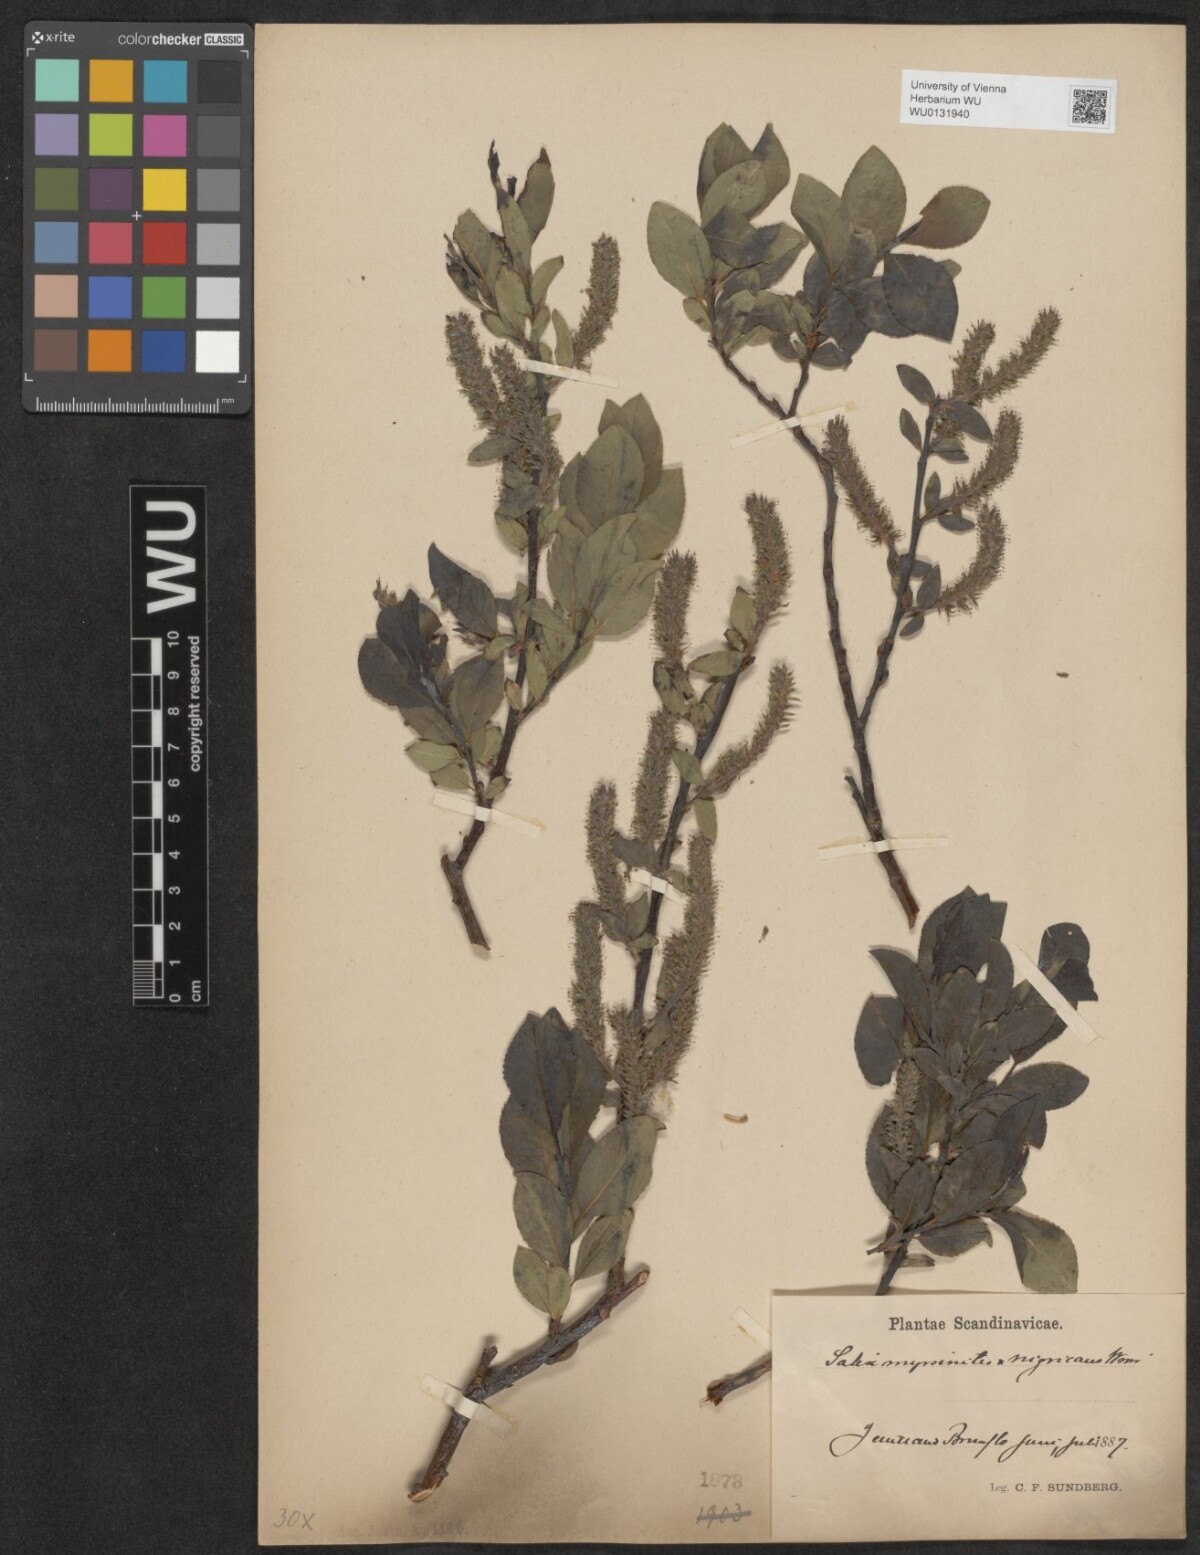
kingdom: Plantae
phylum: Tracheophyta
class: Magnoliopsida
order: Malpighiales
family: Salicaceae
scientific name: Salicaceae
